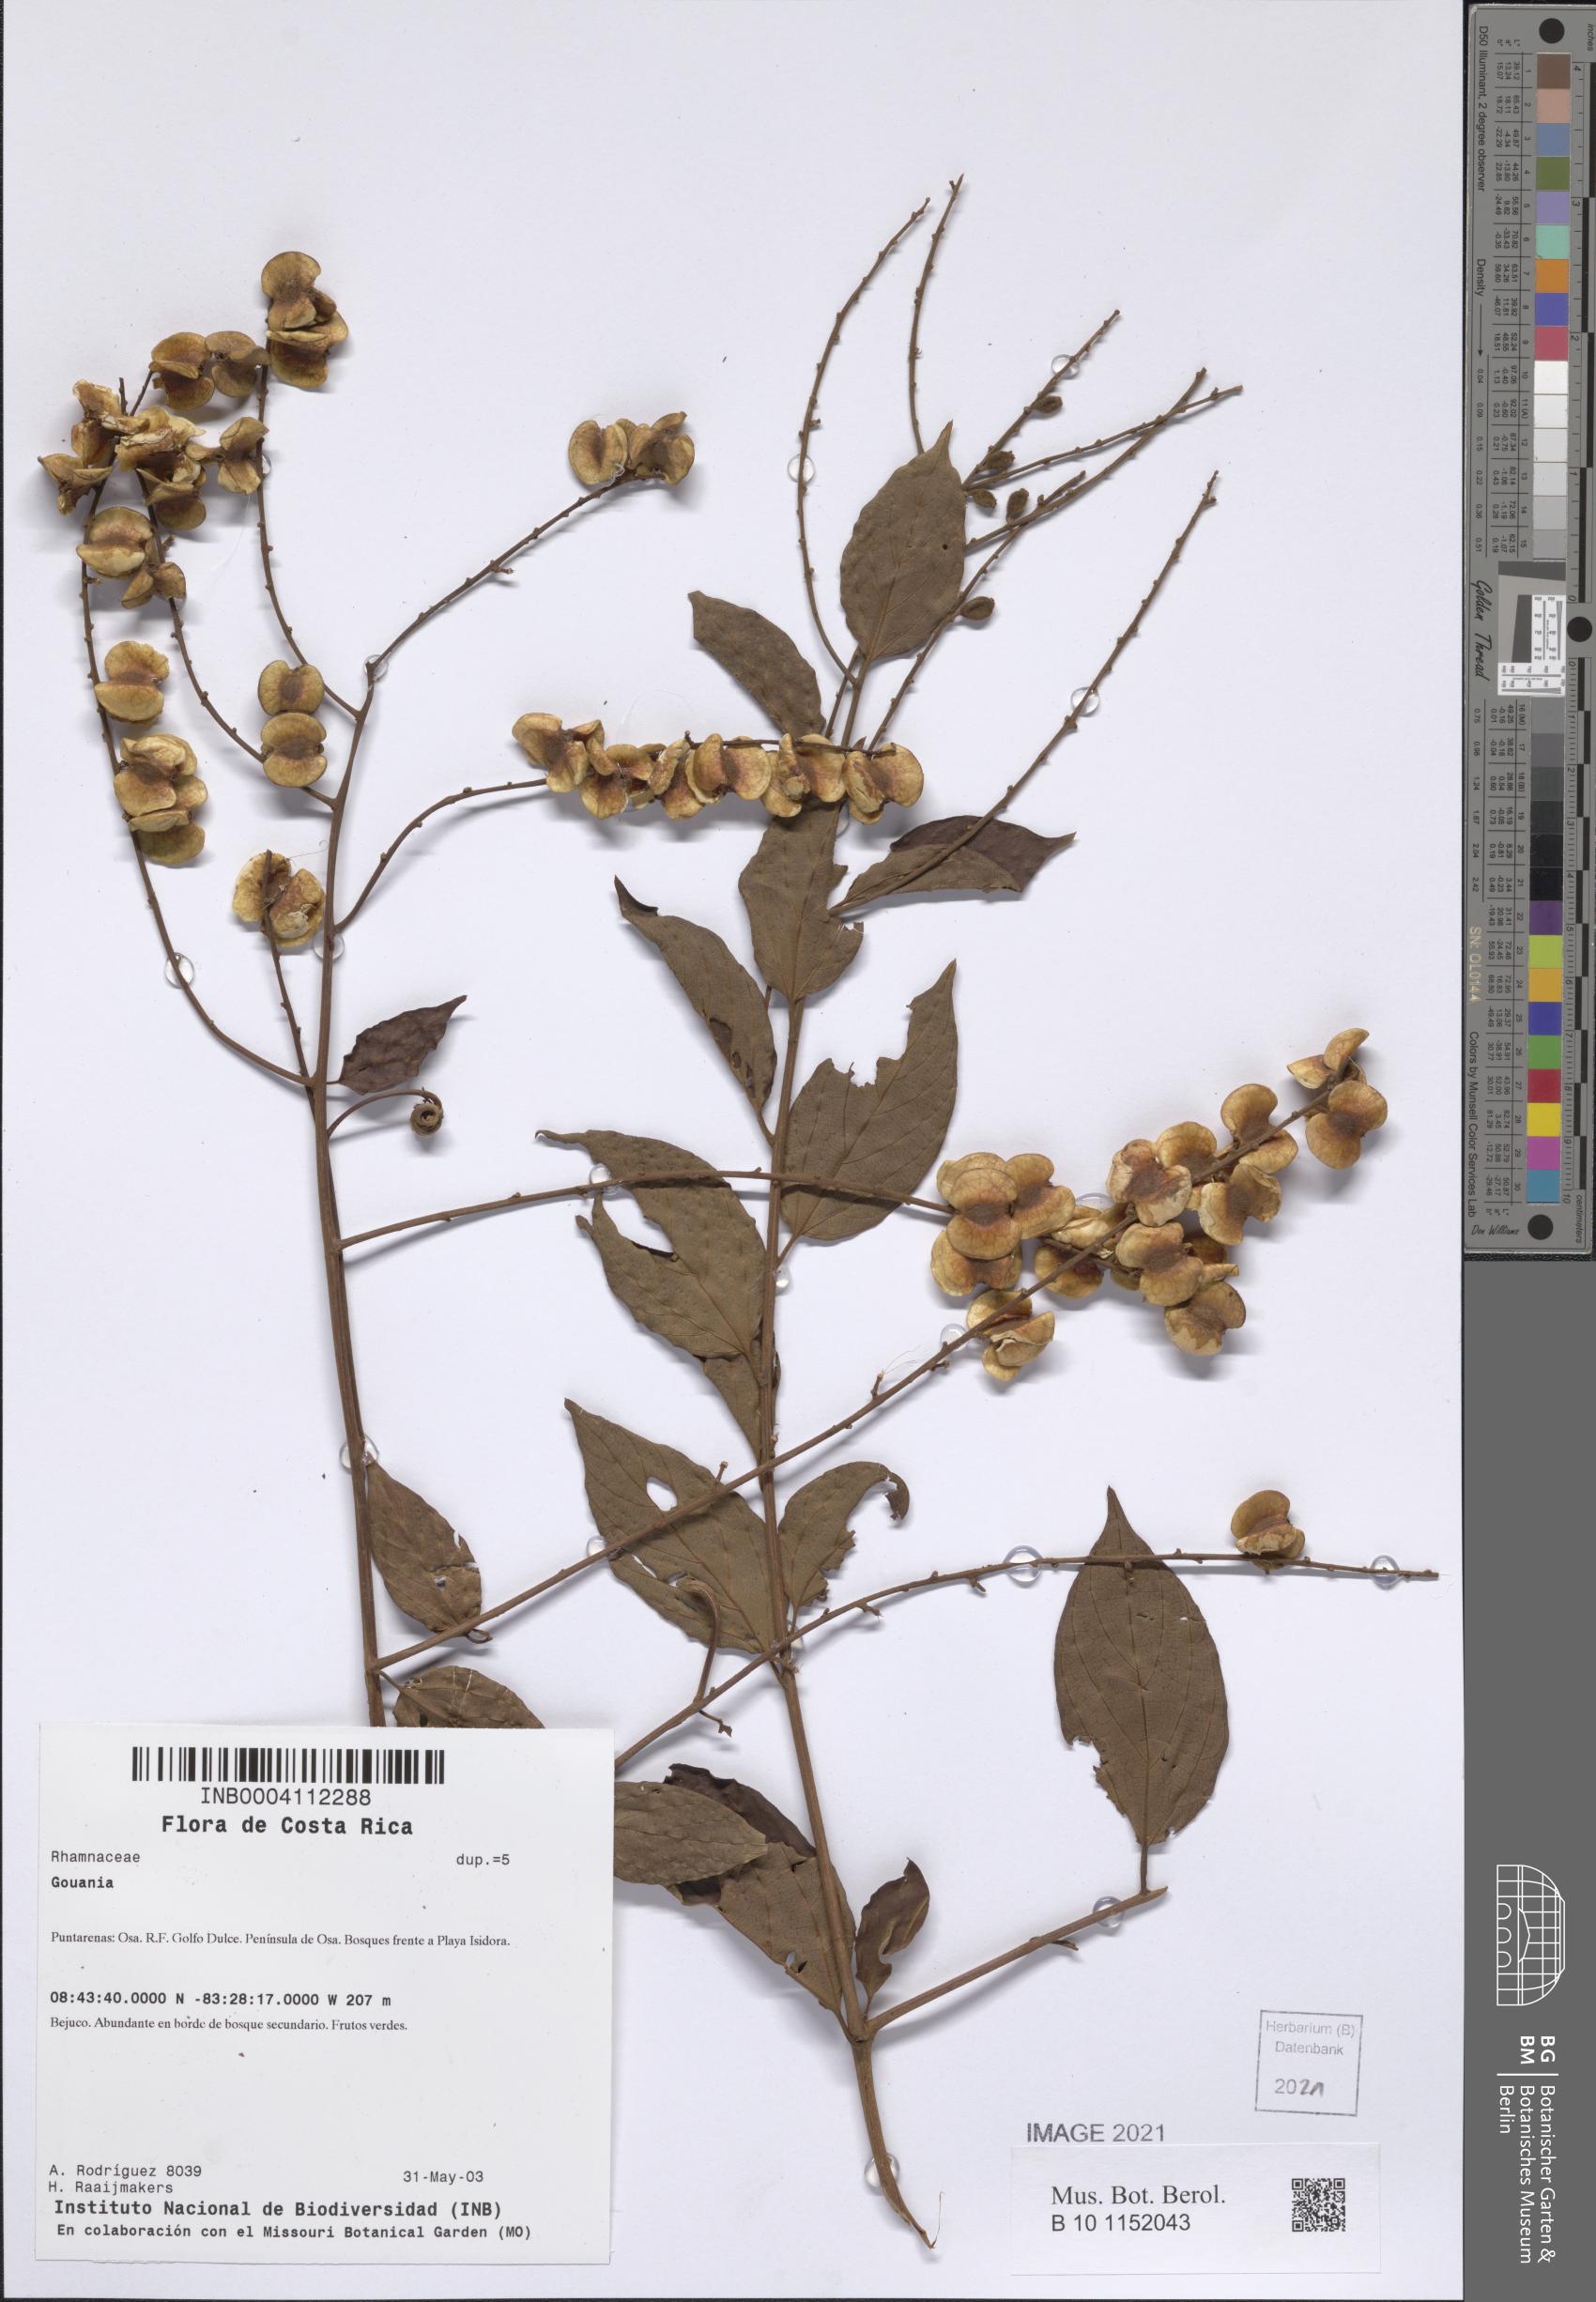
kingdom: Plantae
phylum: Tracheophyta
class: Magnoliopsida
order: Rosales
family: Rhamnaceae
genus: Gouania
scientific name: Gouania hypoglauca
